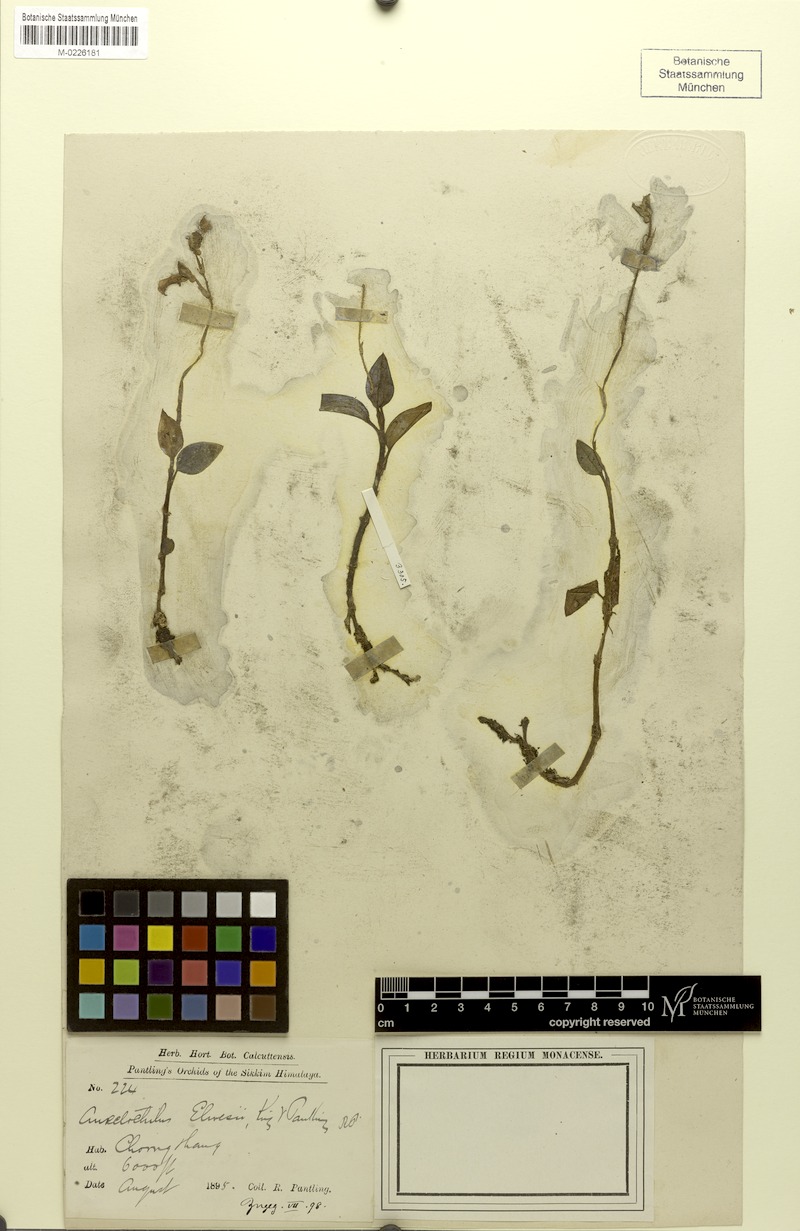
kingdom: Plantae
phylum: Tracheophyta
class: Liliopsida
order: Asparagales
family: Orchidaceae
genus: Odontochilus
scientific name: Odontochilus elwesii
